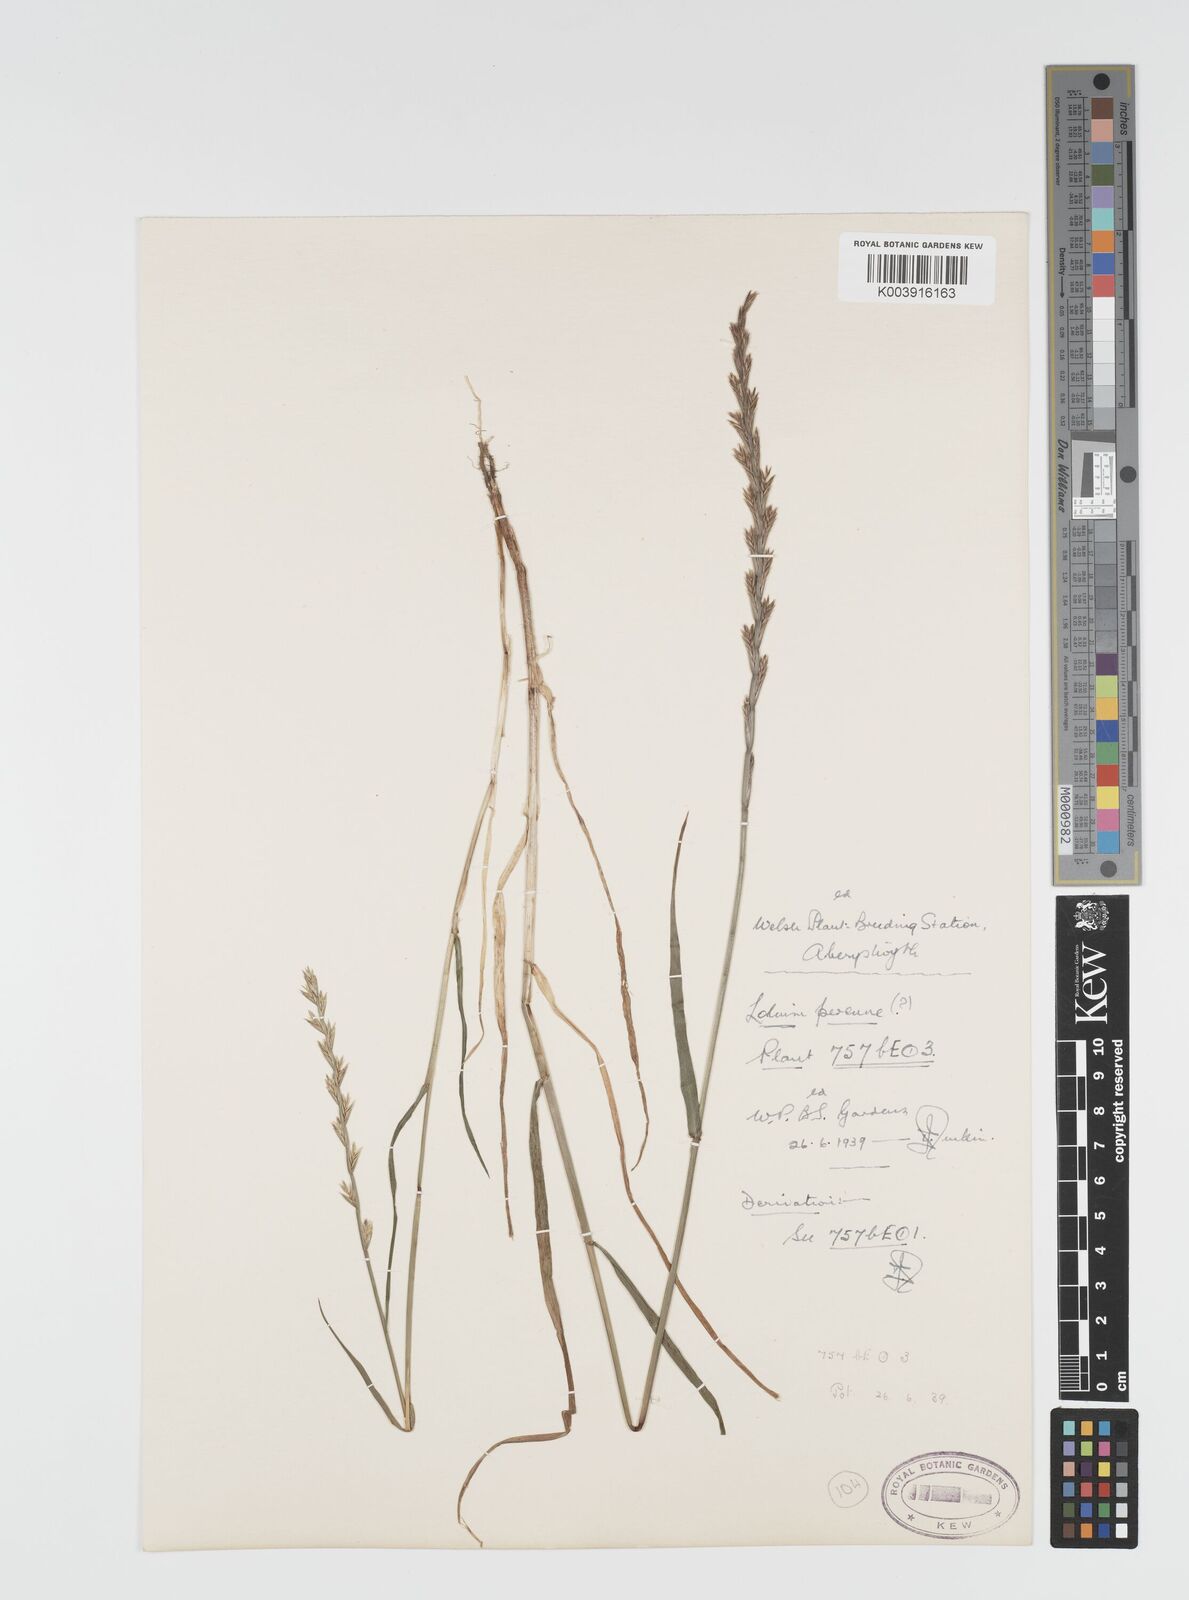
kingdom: Plantae
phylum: Tracheophyta
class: Liliopsida
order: Poales
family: Poaceae
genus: Lolium
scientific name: Lolium rigidum
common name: Wimmera ryegrass
